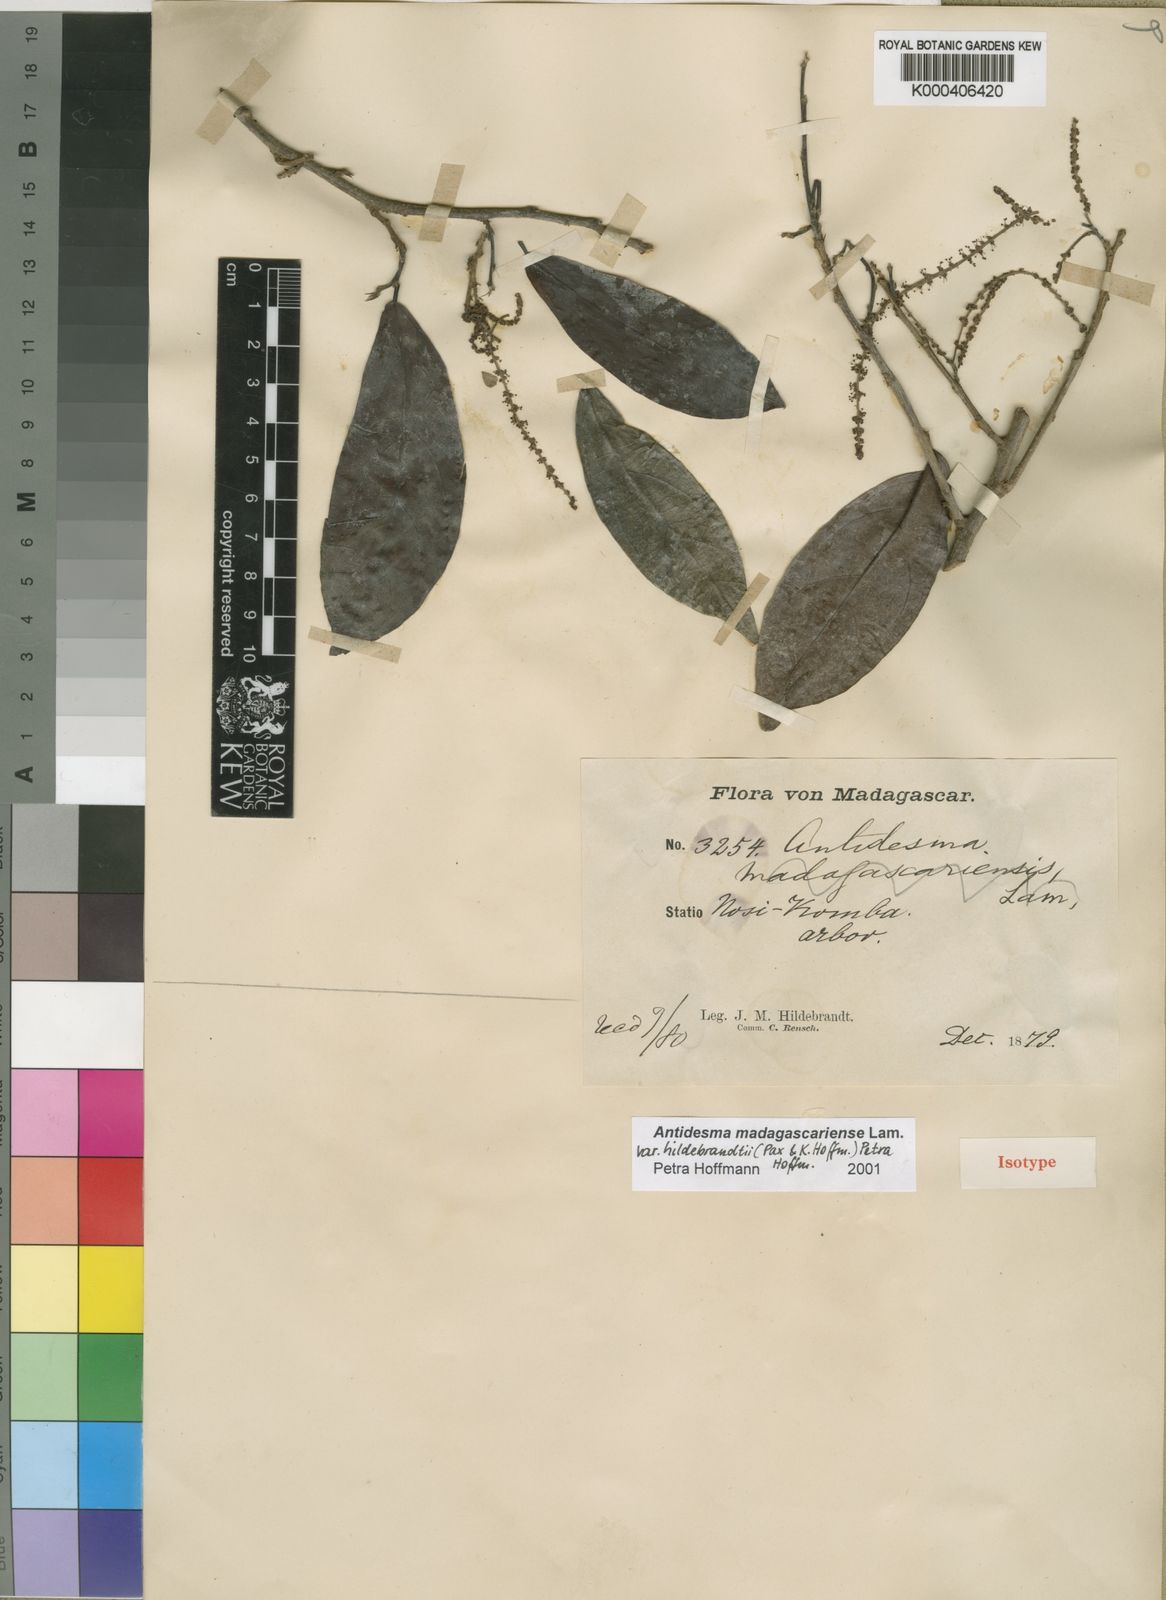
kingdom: Plantae
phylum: Tracheophyta
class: Magnoliopsida
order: Malpighiales
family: Phyllanthaceae
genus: Antidesma
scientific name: Antidesma madagascariense
